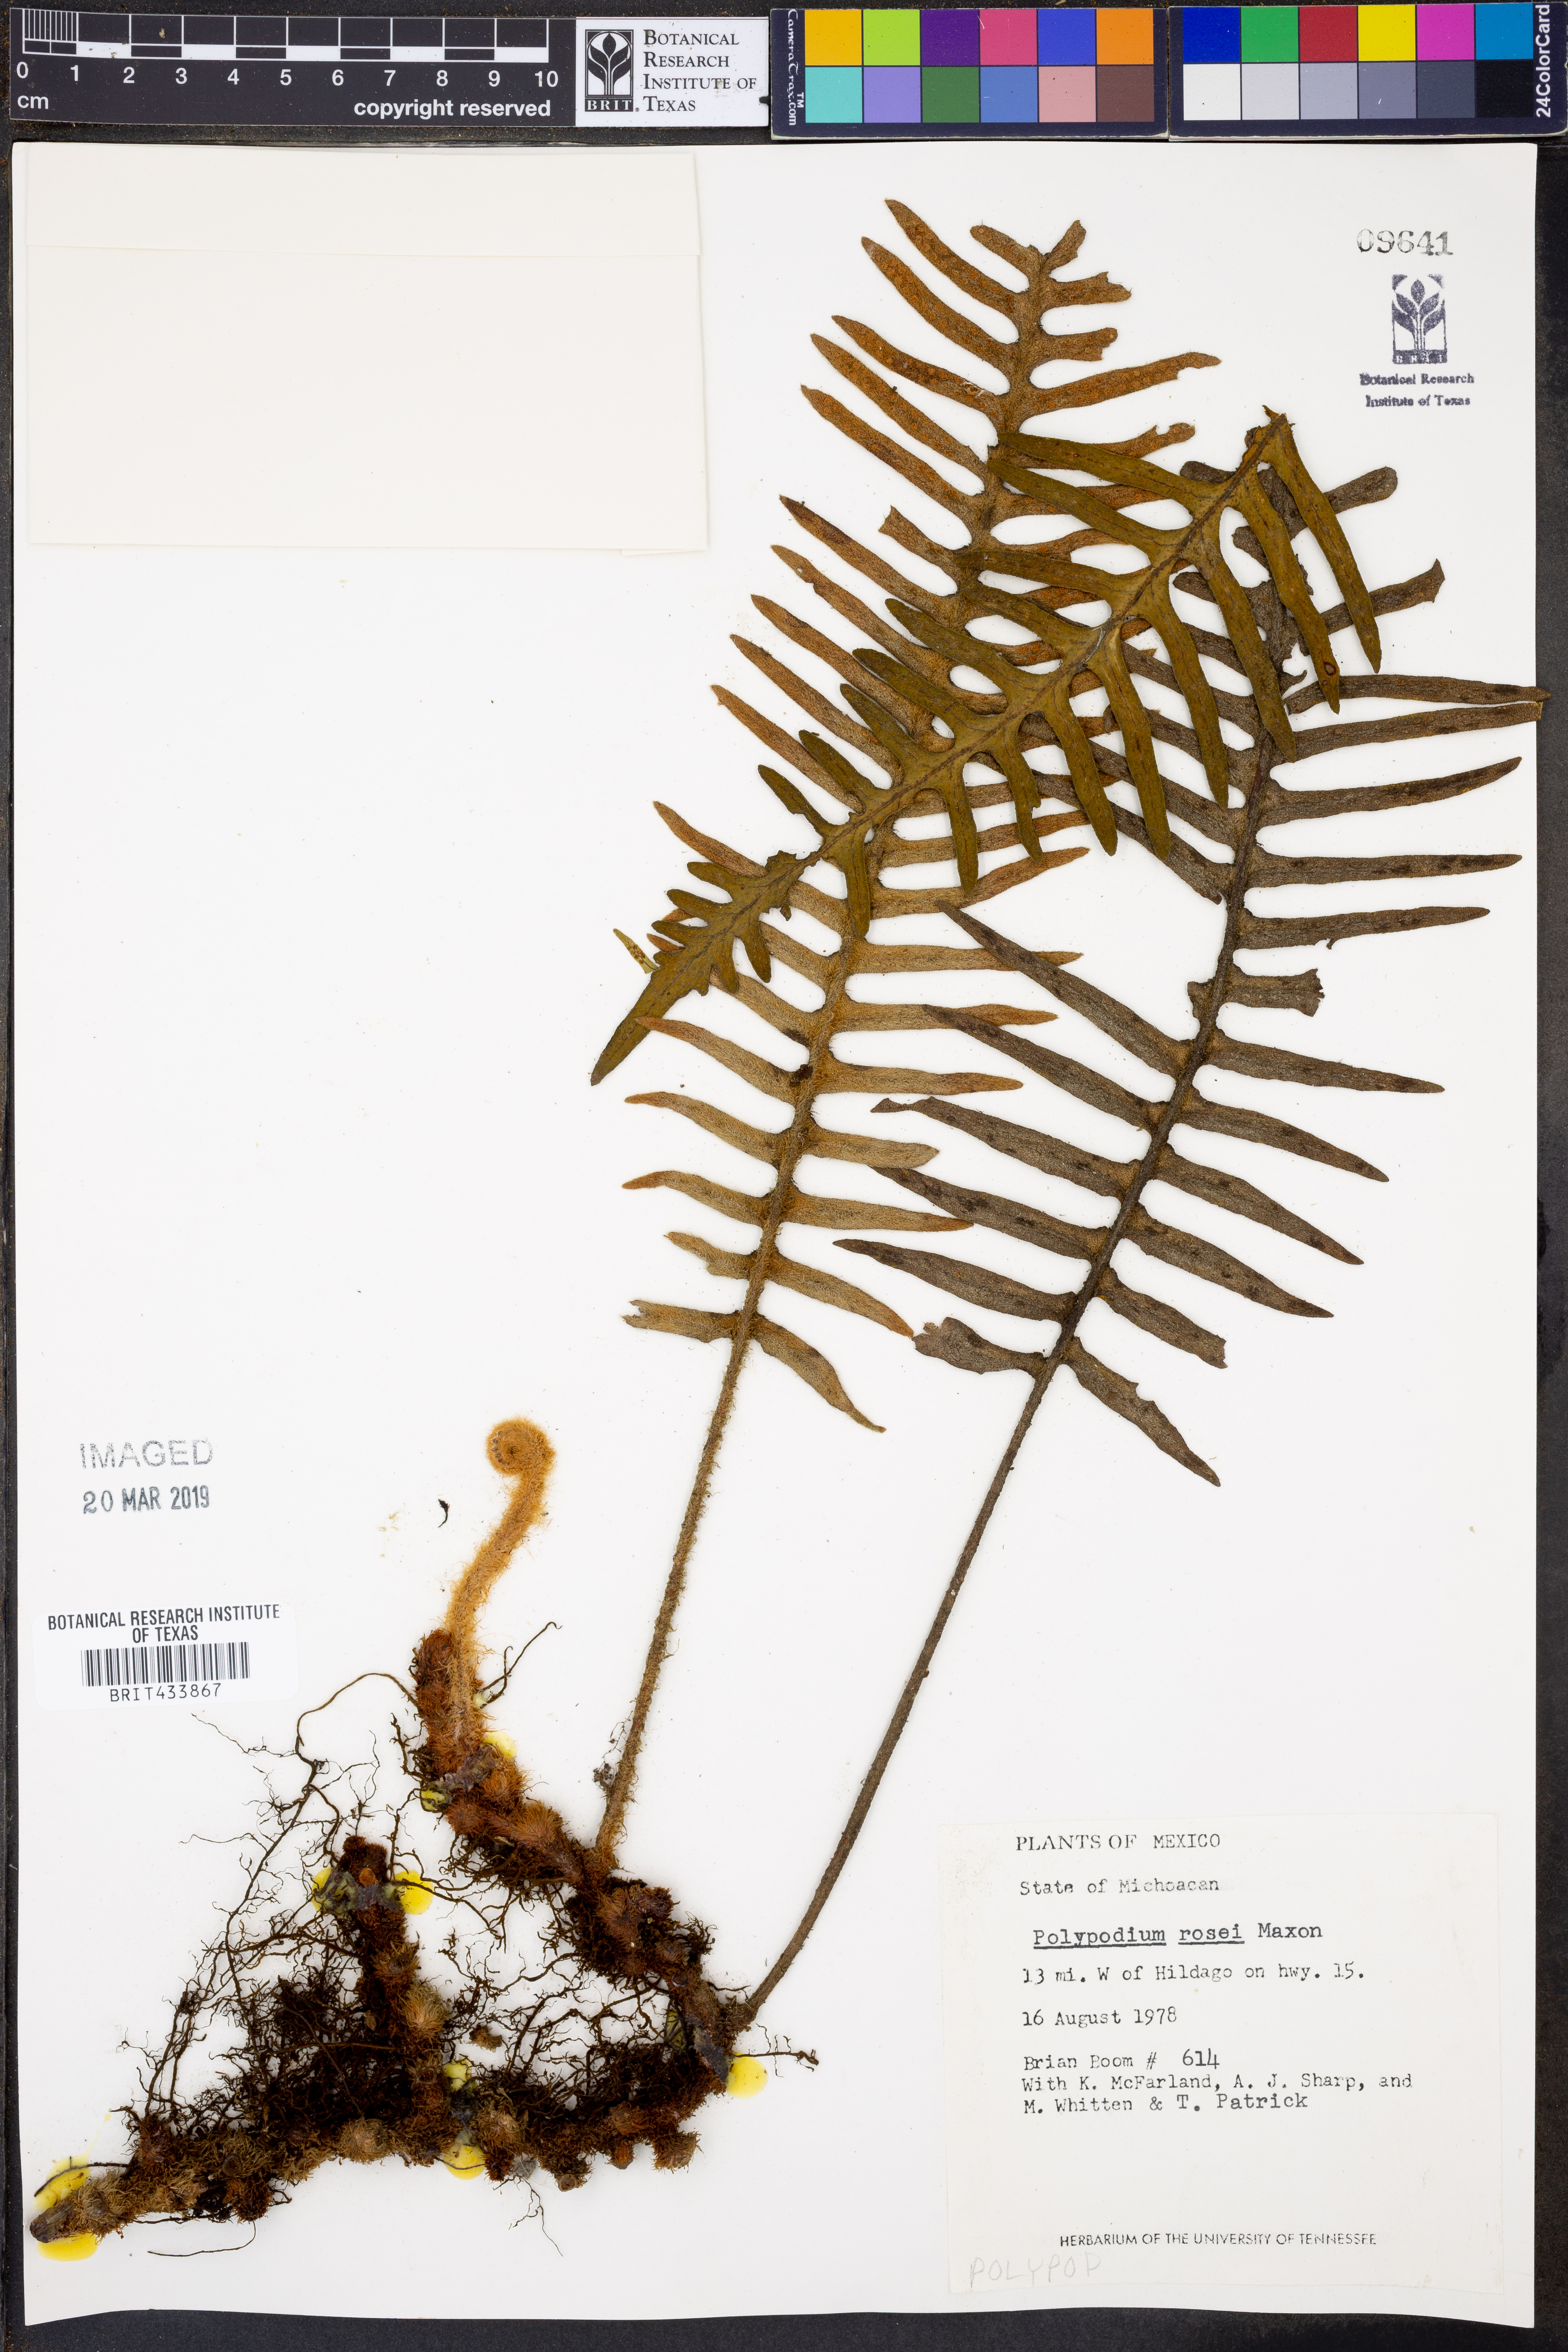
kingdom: Plantae
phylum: Tracheophyta
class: Polypodiopsida
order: Polypodiales
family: Polypodiaceae
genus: Pleopeltis
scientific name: Pleopeltis rosei
